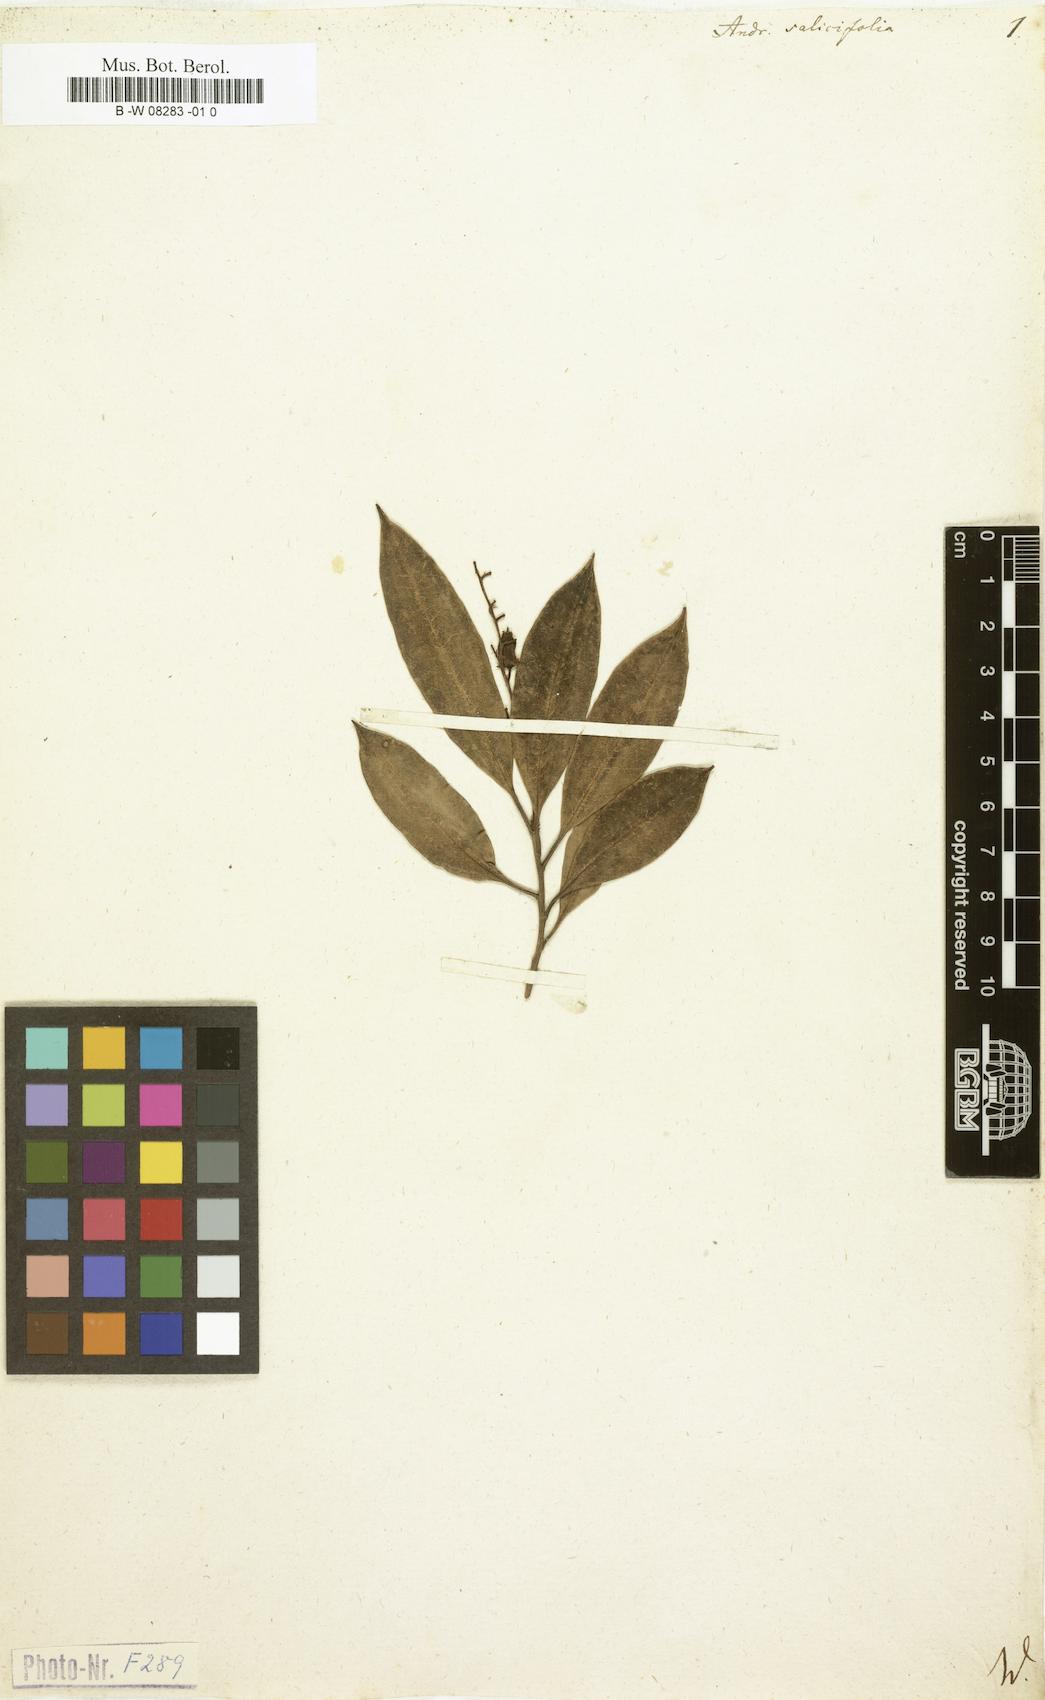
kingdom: Plantae
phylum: Tracheophyta
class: Magnoliopsida
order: Ericales
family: Ericaceae
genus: Agarista
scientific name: Agarista salicifolia
